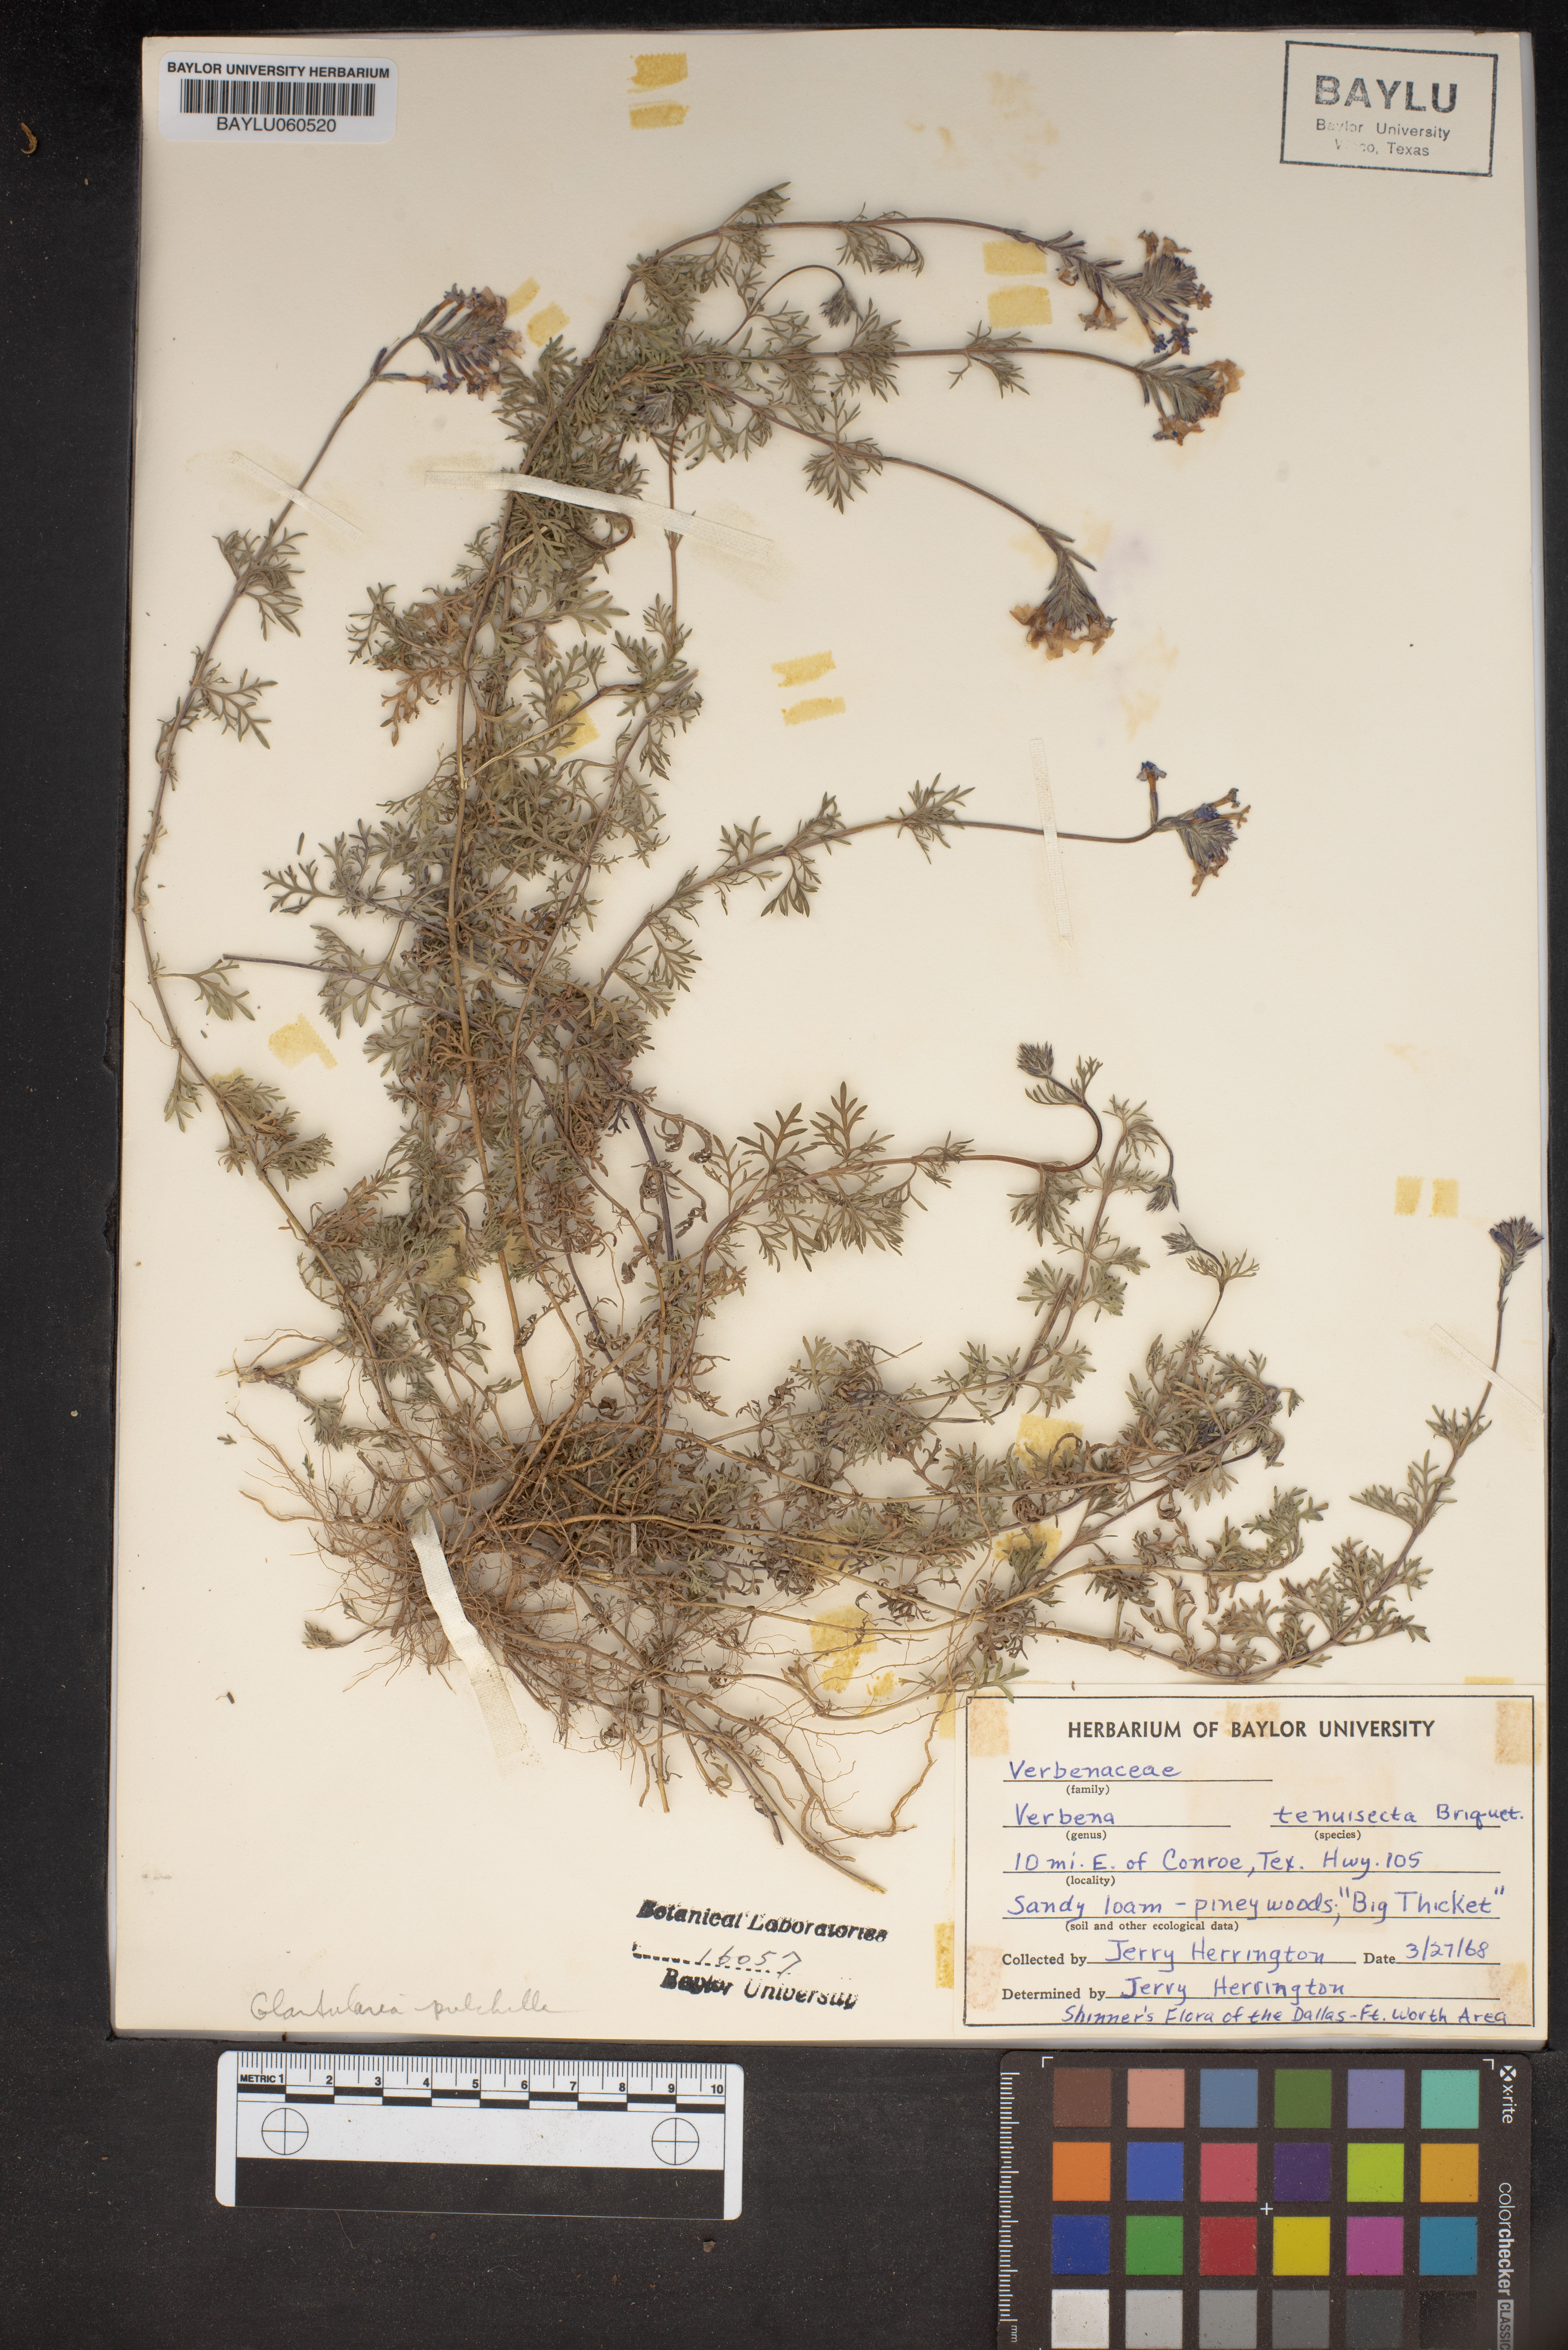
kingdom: Plantae
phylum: Tracheophyta
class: Magnoliopsida
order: Lamiales
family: Verbenaceae
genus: Verbena
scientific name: Verbena aristigera
